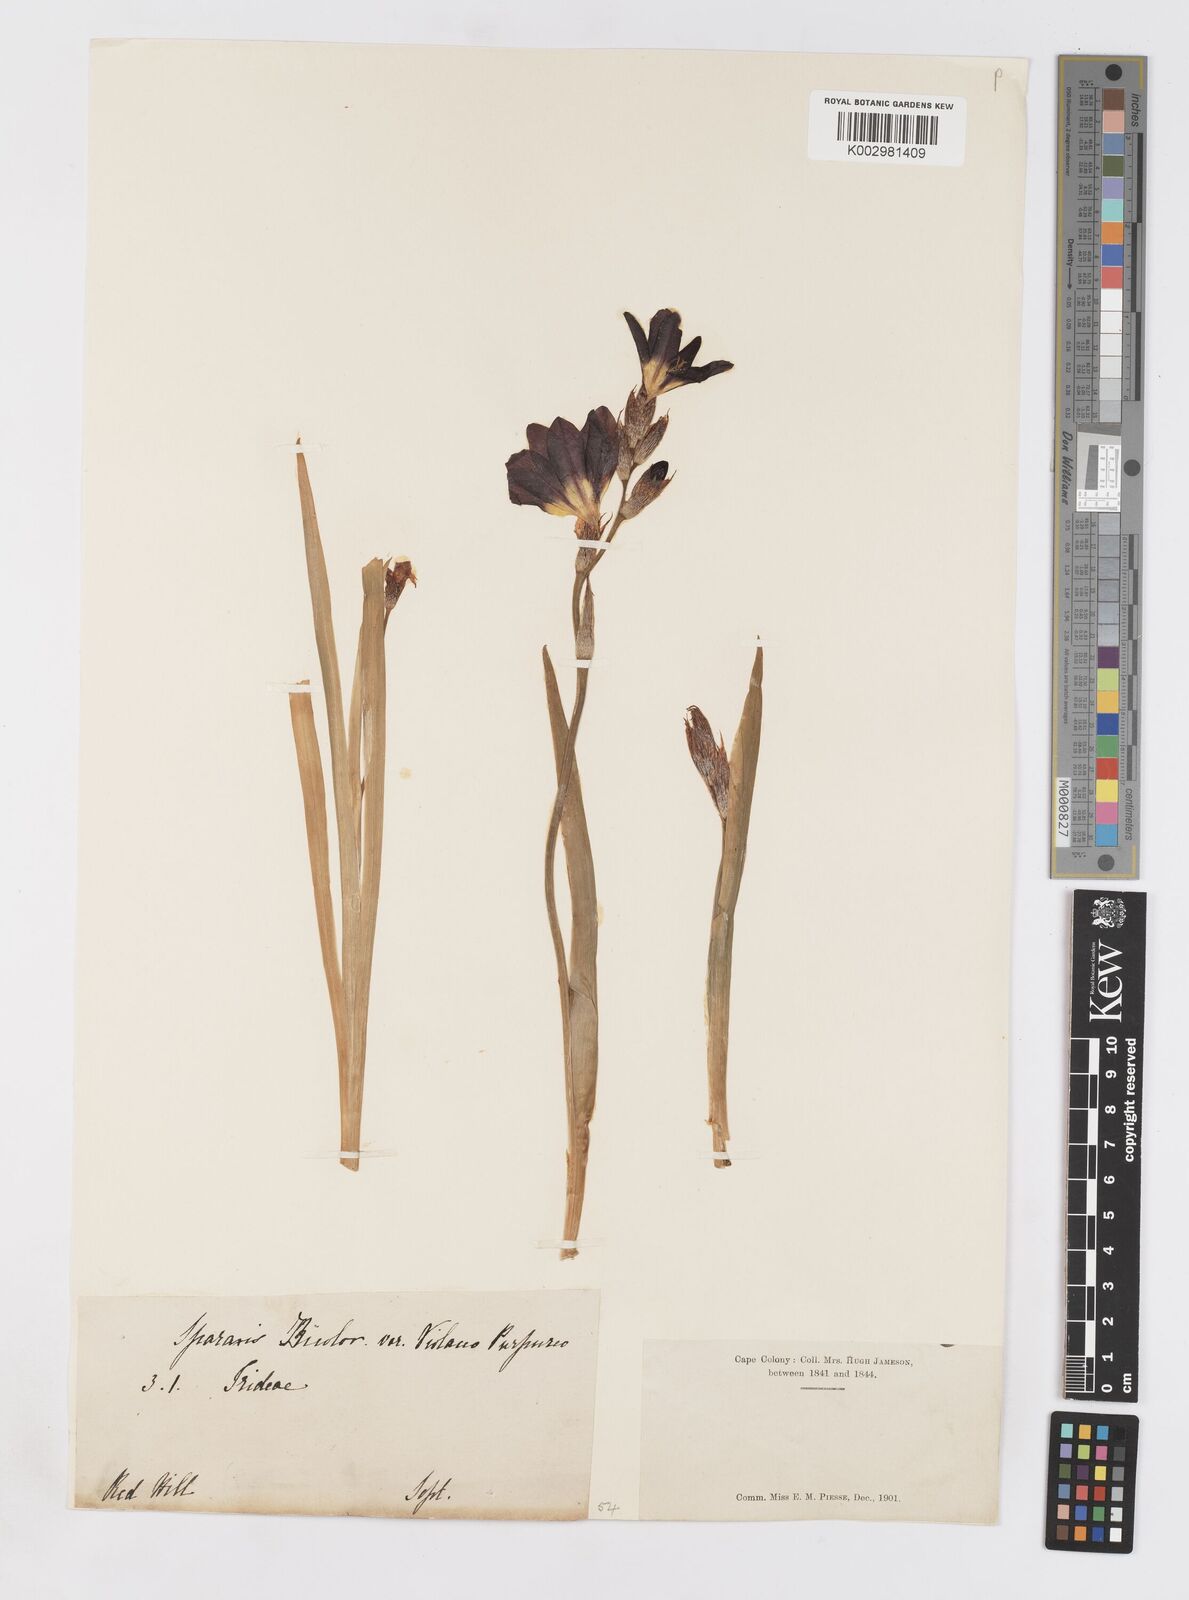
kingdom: Plantae
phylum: Tracheophyta
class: Liliopsida
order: Asparagales
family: Iridaceae
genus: Sparaxis
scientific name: Sparaxis tricolor
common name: Wandflower
